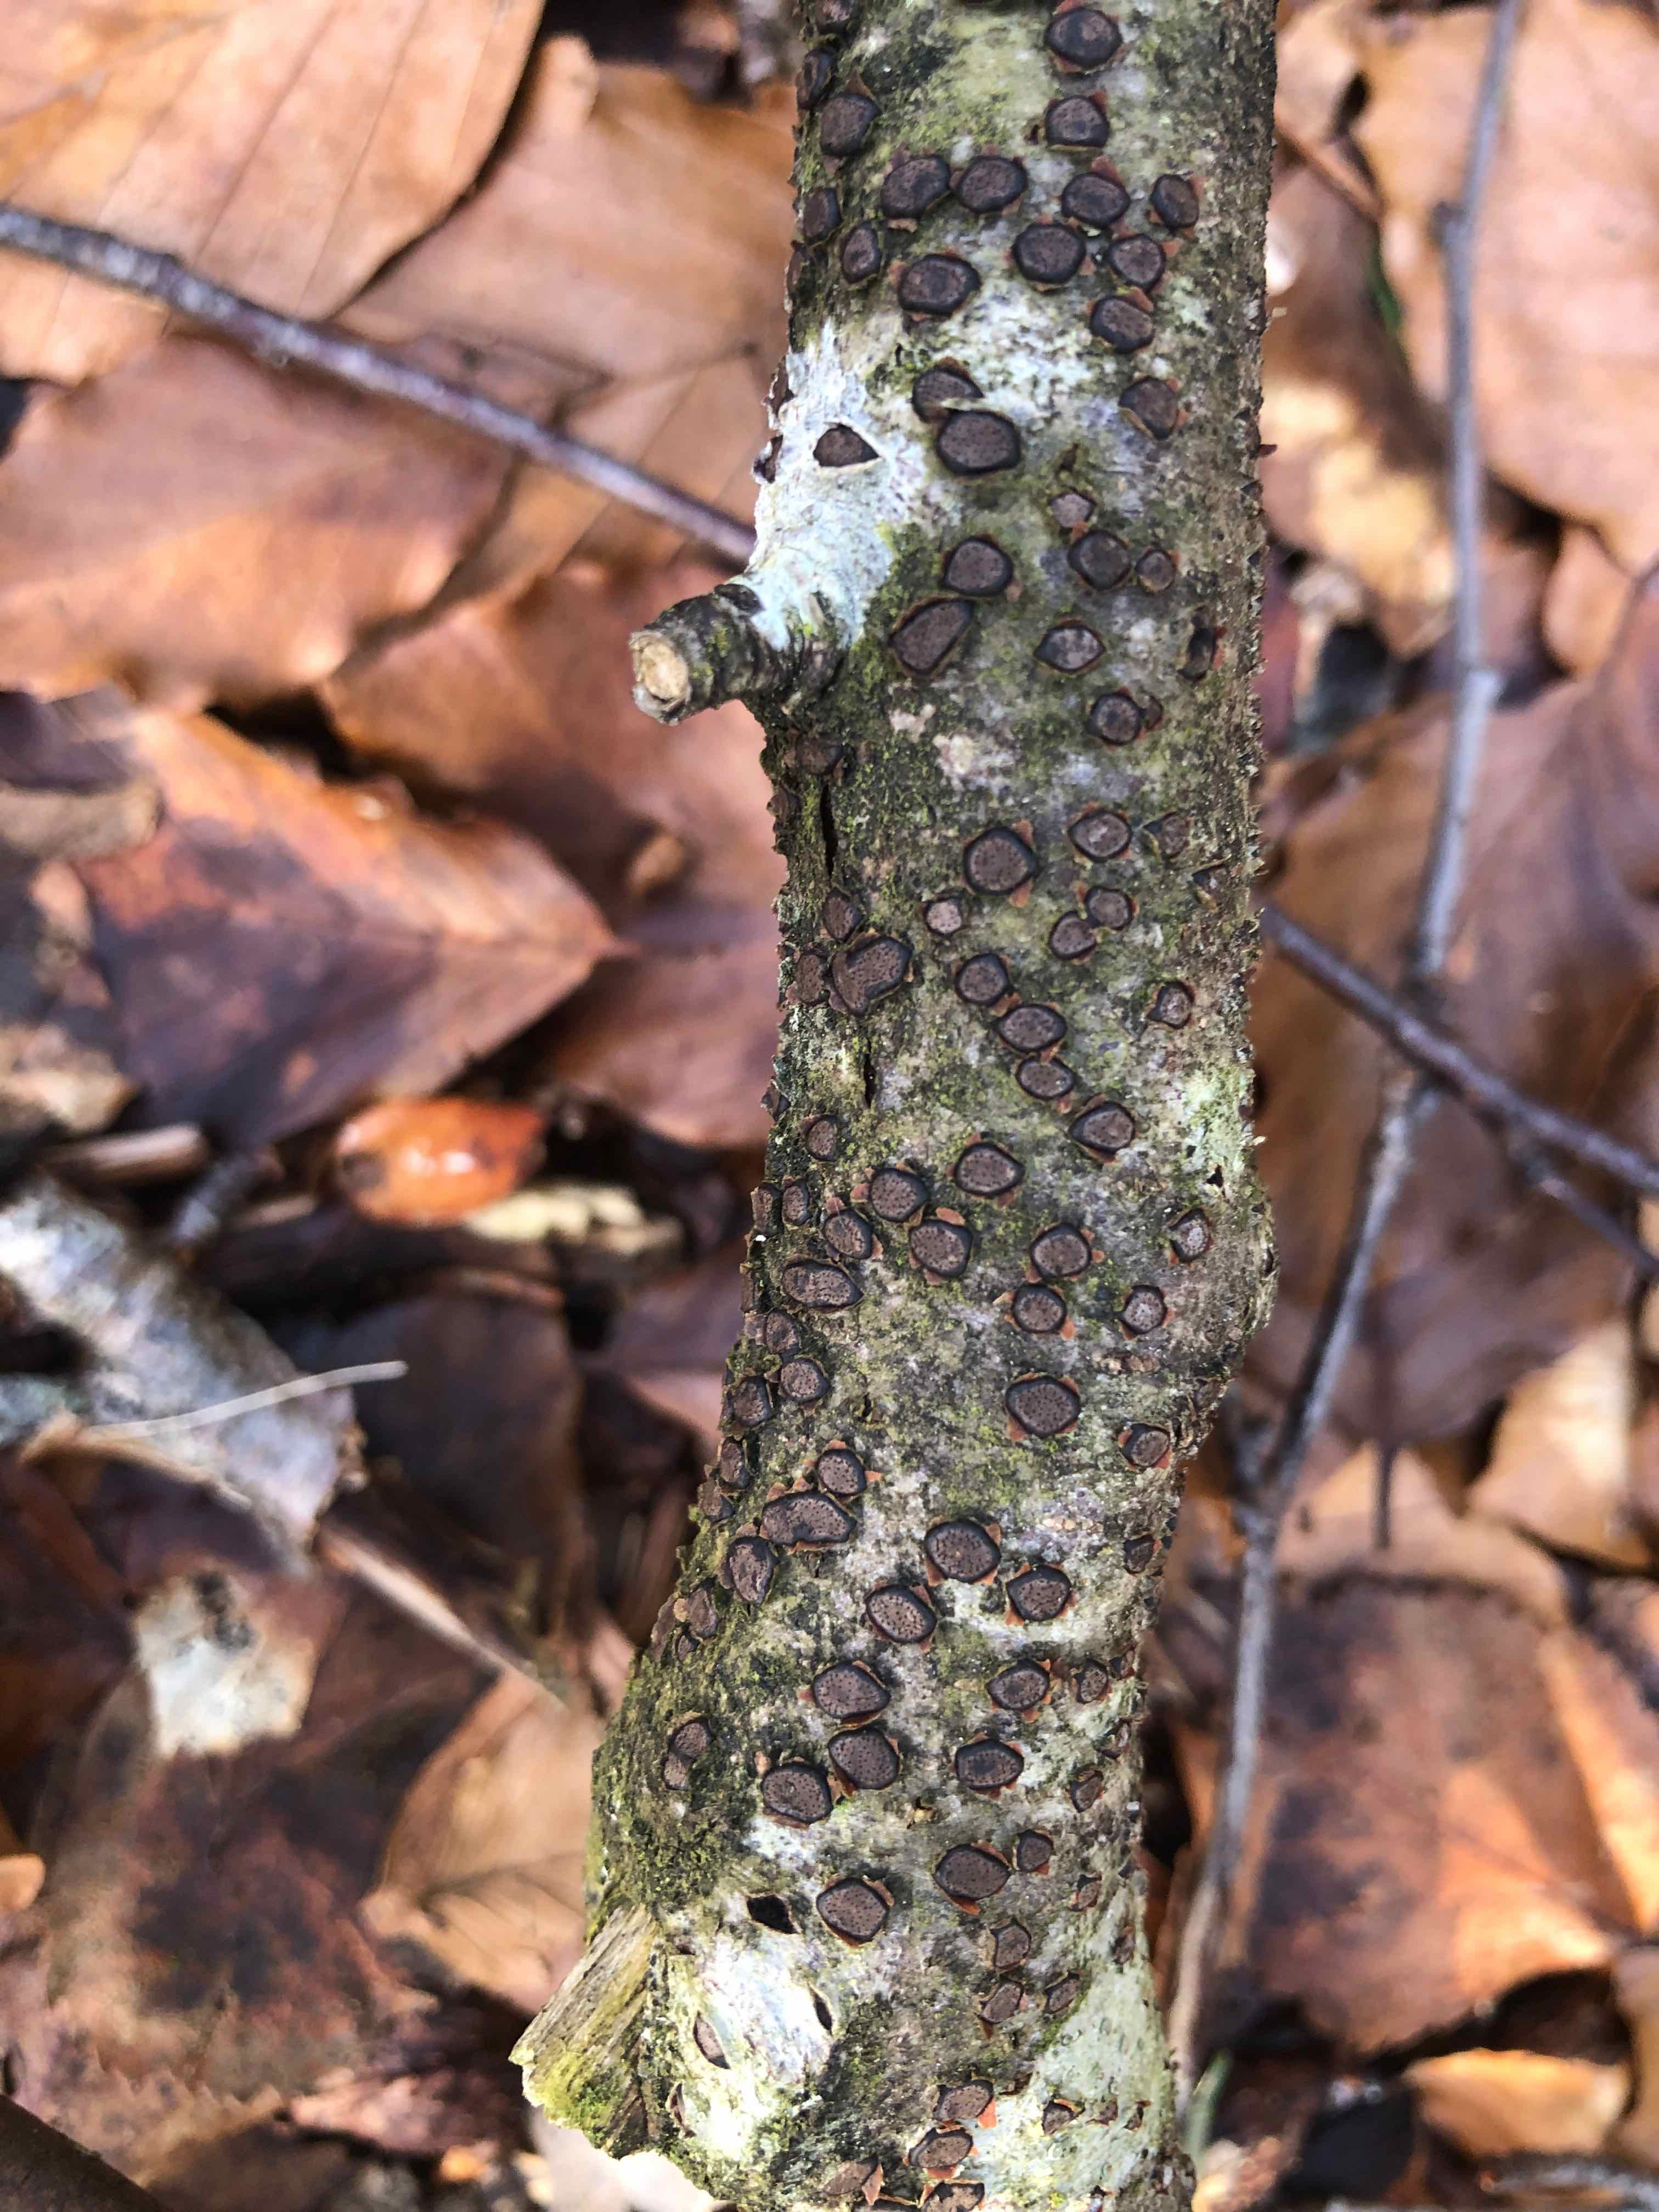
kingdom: Fungi
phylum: Ascomycota
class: Sordariomycetes
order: Xylariales
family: Diatrypaceae
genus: Diatrype
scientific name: Diatrype disciformis
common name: kant-kulskorpe
